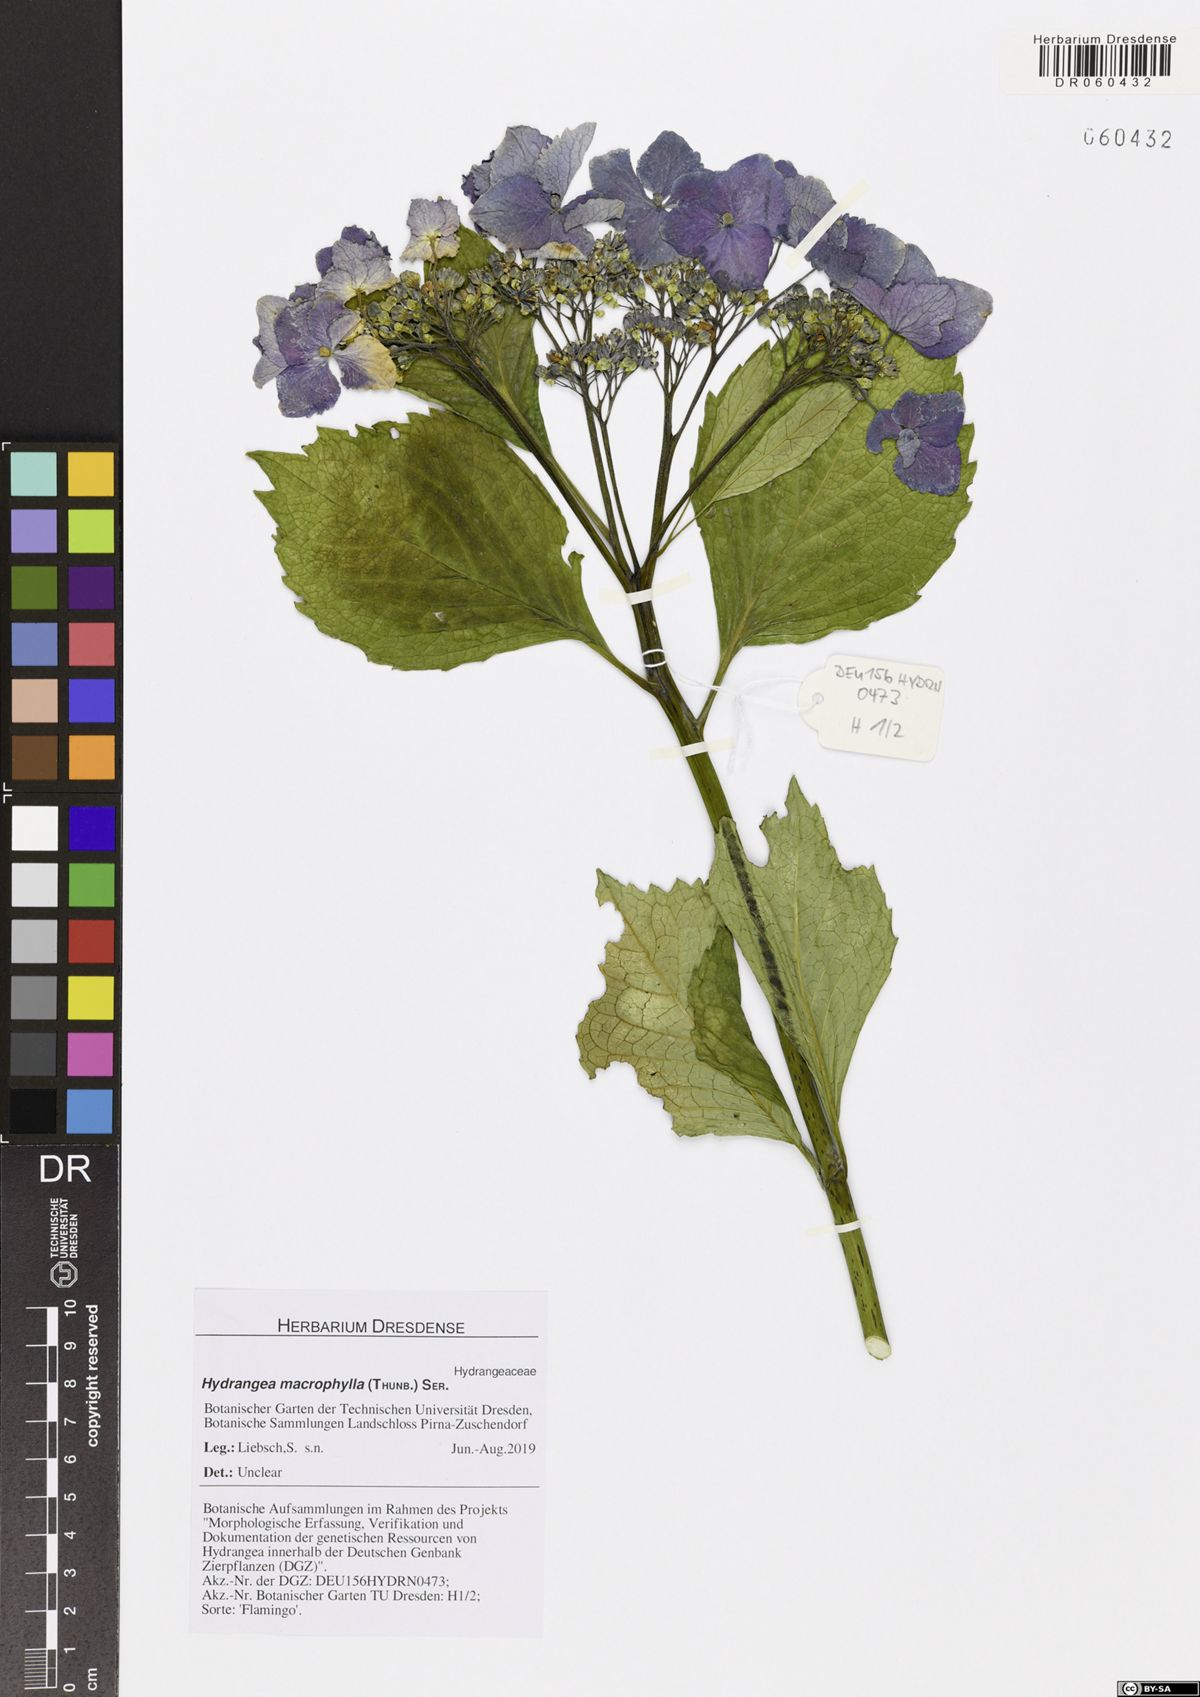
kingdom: Plantae
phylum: Tracheophyta
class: Magnoliopsida
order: Cornales
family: Hydrangeaceae
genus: Hydrangea
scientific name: Hydrangea macrophylla
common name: Hydrangea
